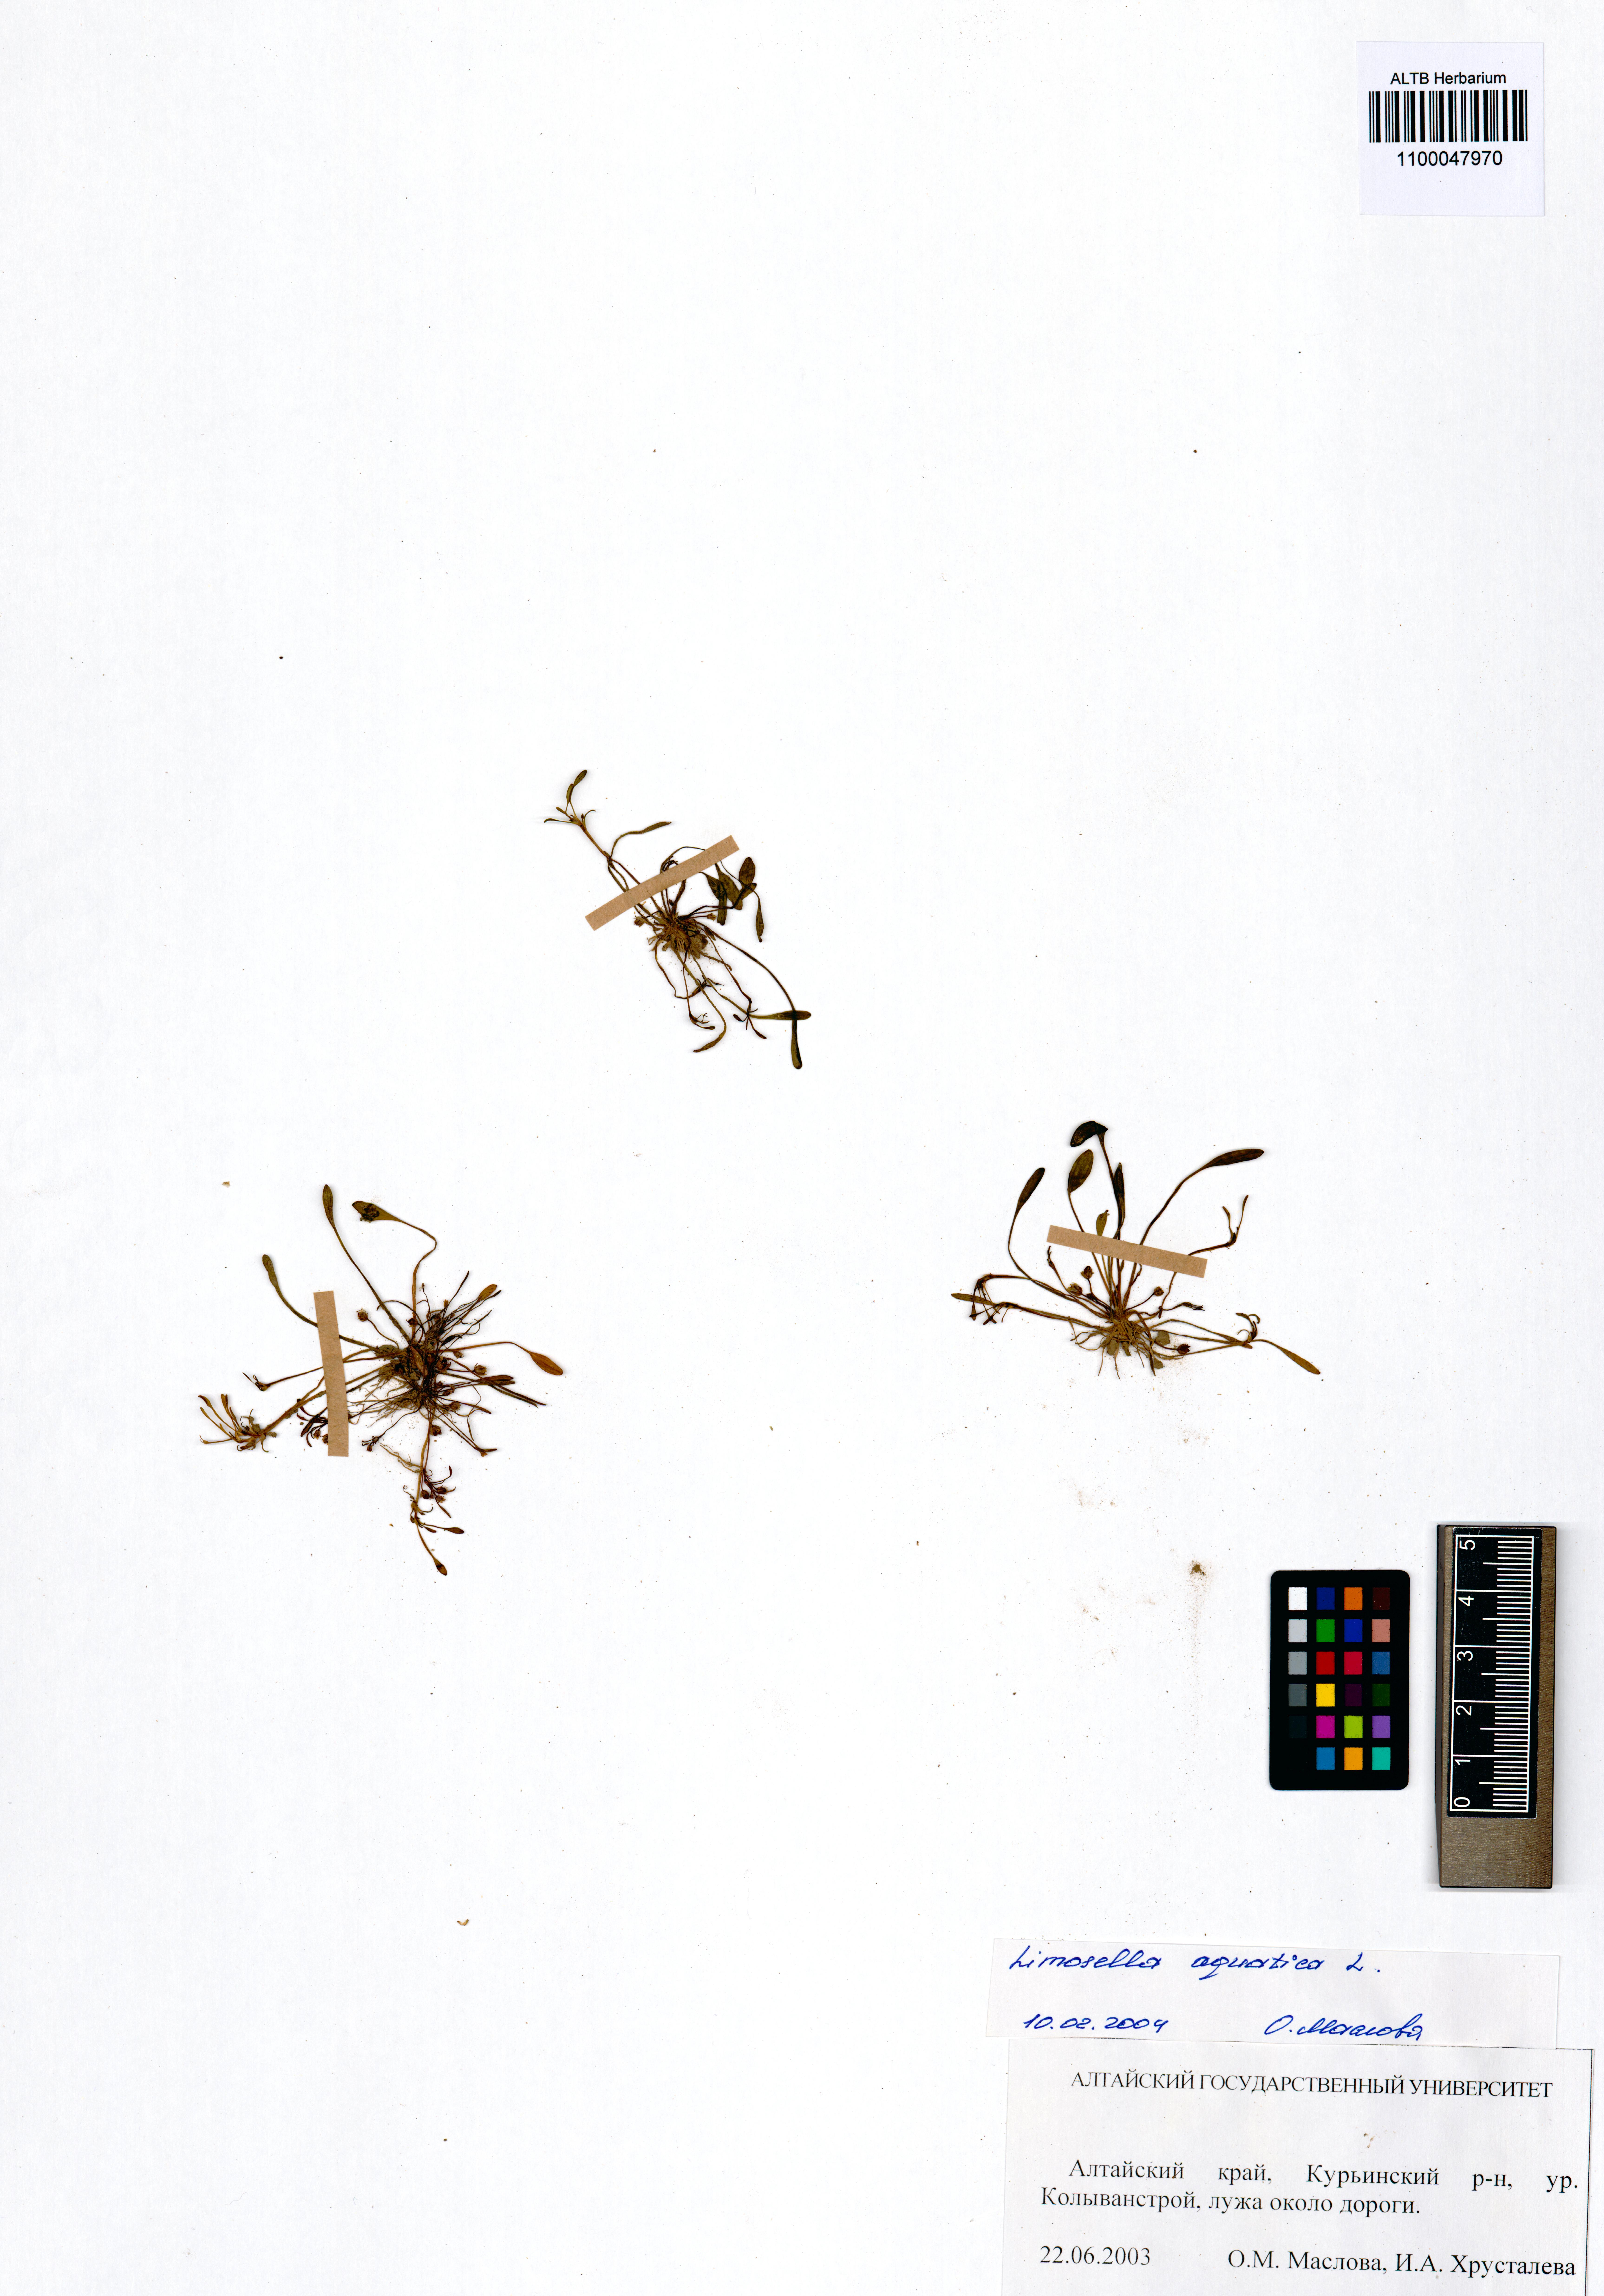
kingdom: Plantae
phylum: Tracheophyta
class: Magnoliopsida
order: Lamiales
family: Scrophulariaceae
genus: Limosella
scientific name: Limosella aquatica
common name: Mudwort
